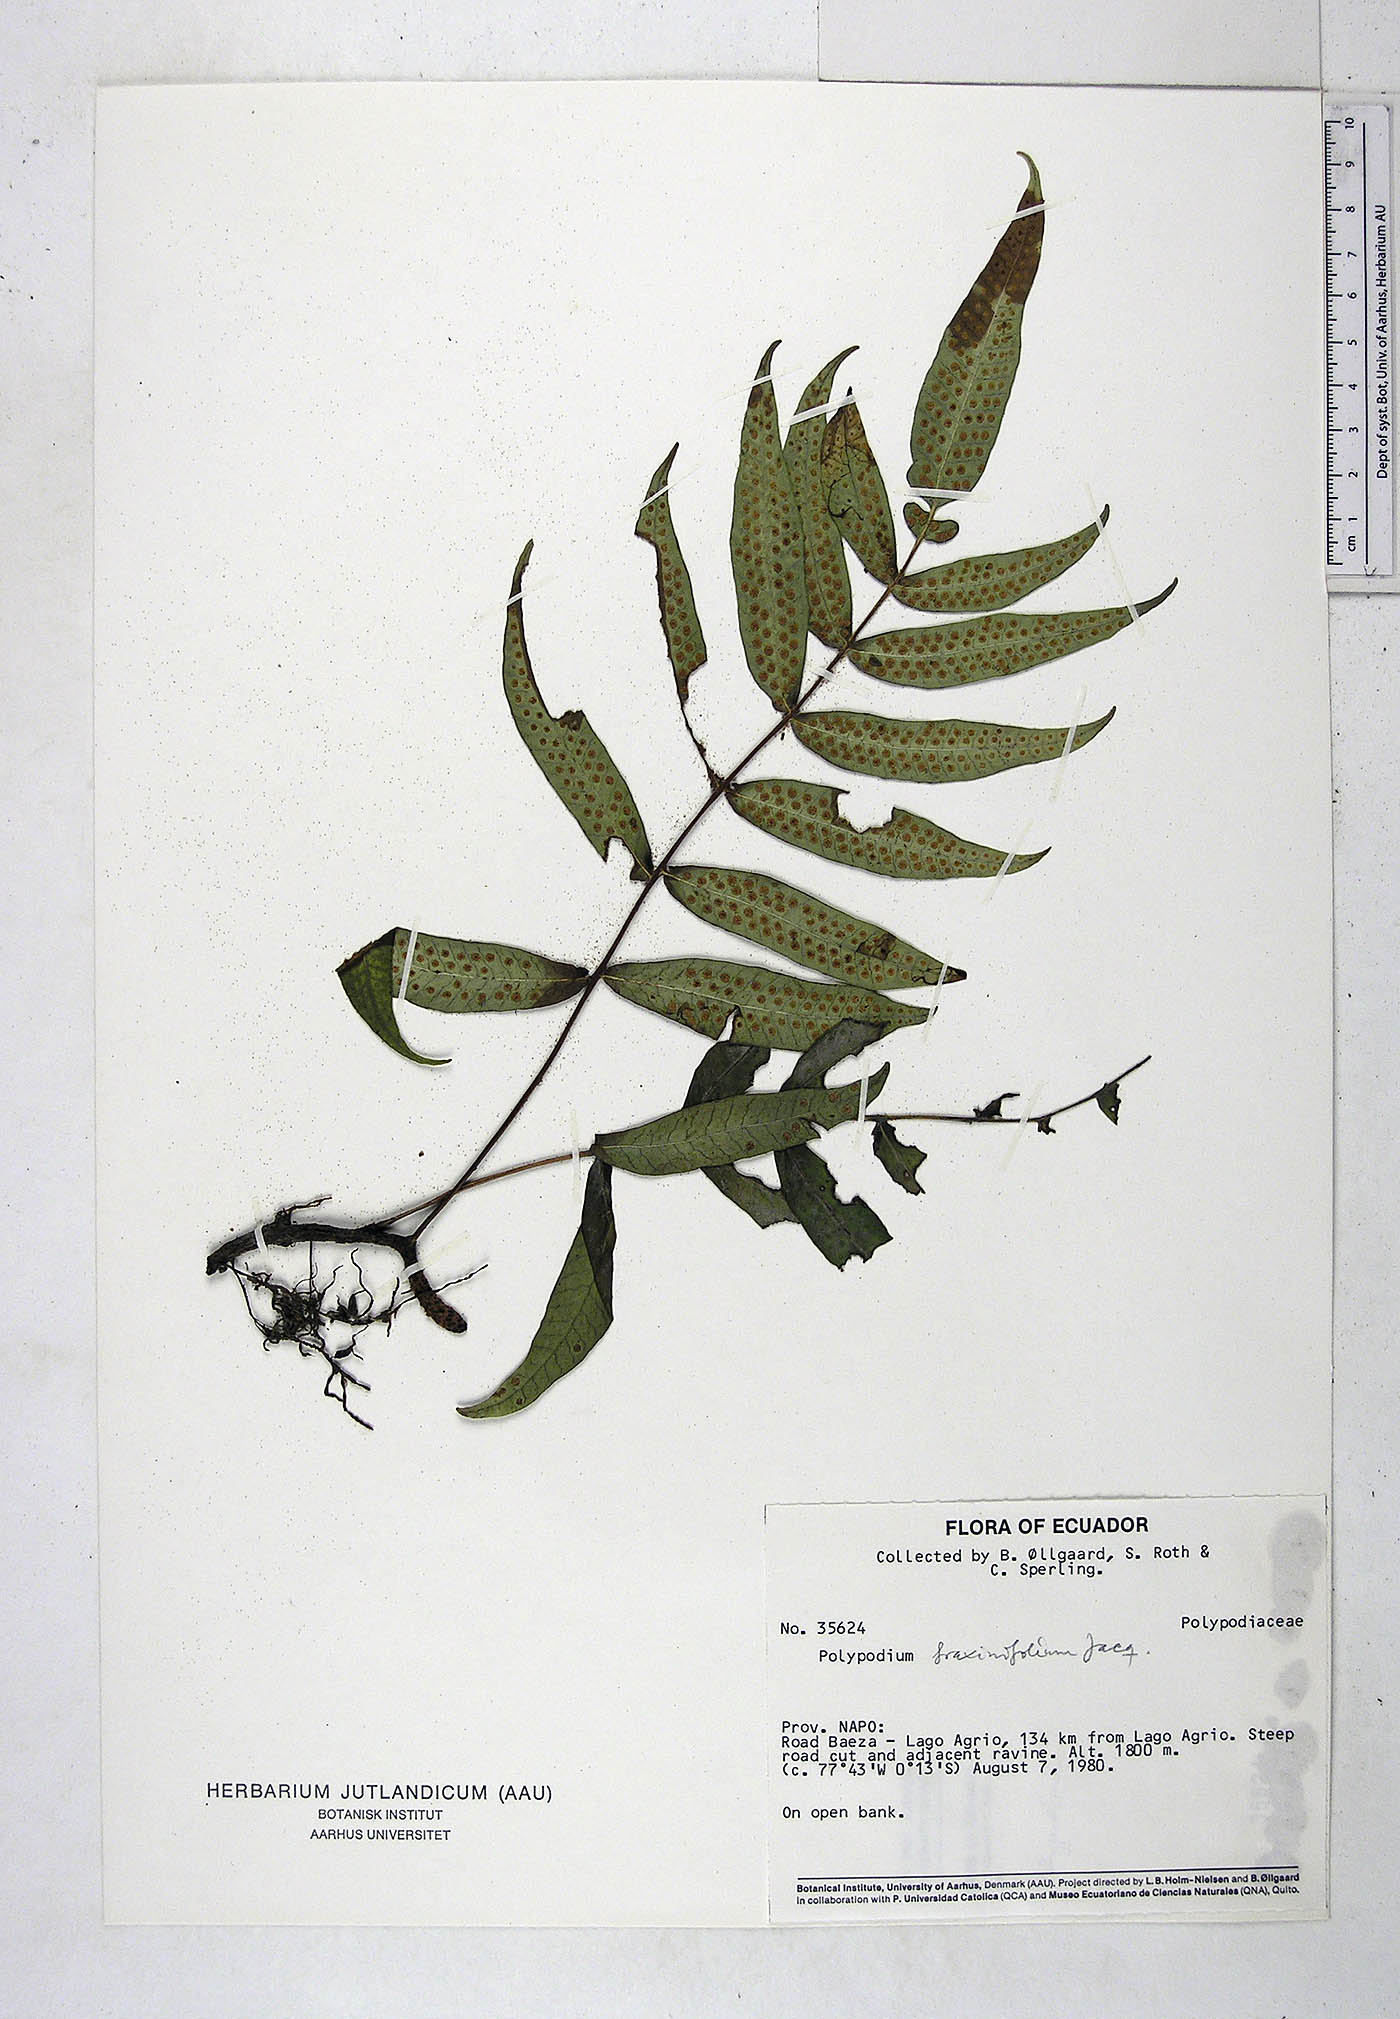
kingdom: Plantae
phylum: Tracheophyta
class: Polypodiopsida
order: Polypodiales
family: Polypodiaceae
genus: Serpocaulon
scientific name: Serpocaulon fraxinifolium
